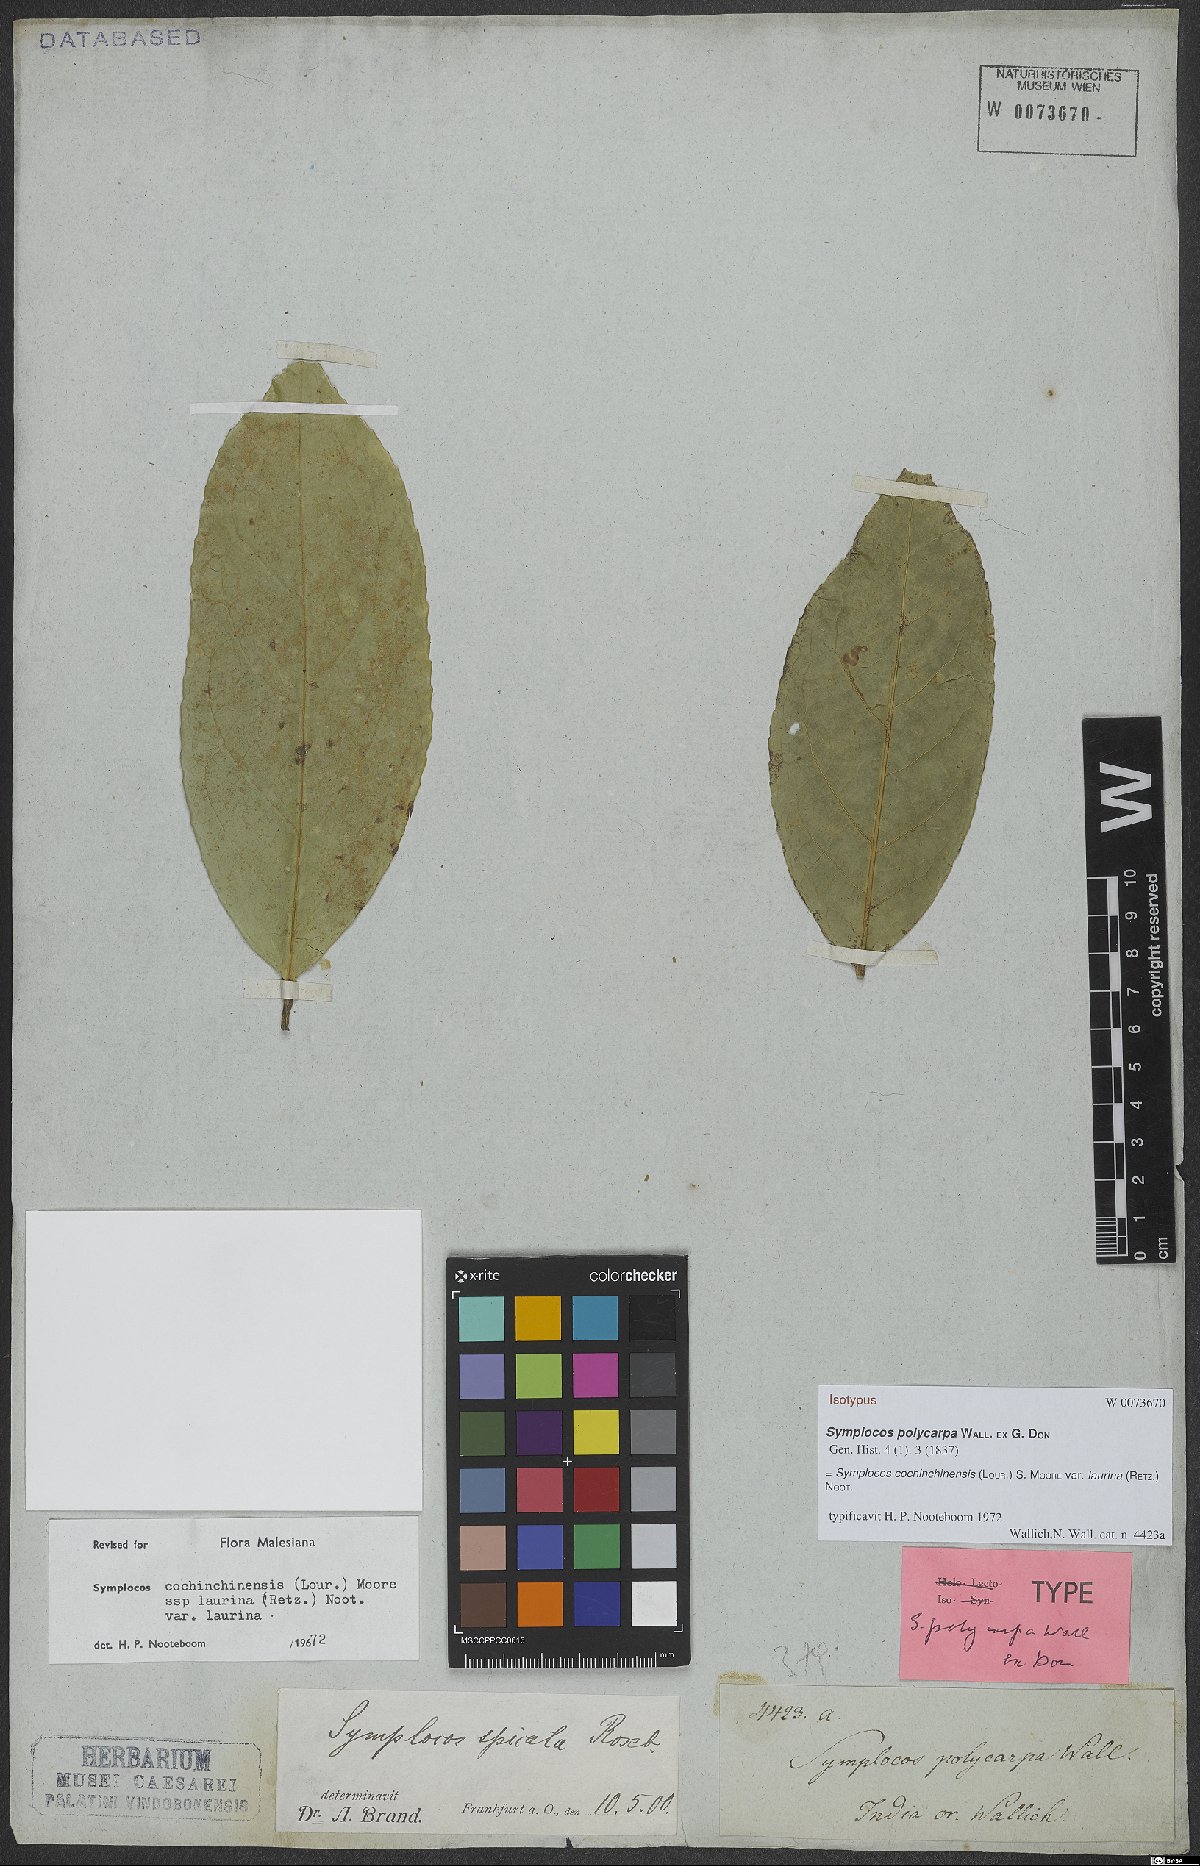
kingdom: Plantae
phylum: Tracheophyta
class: Magnoliopsida
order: Ericales
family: Symplocaceae
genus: Symplocos
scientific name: Symplocos acuminata
